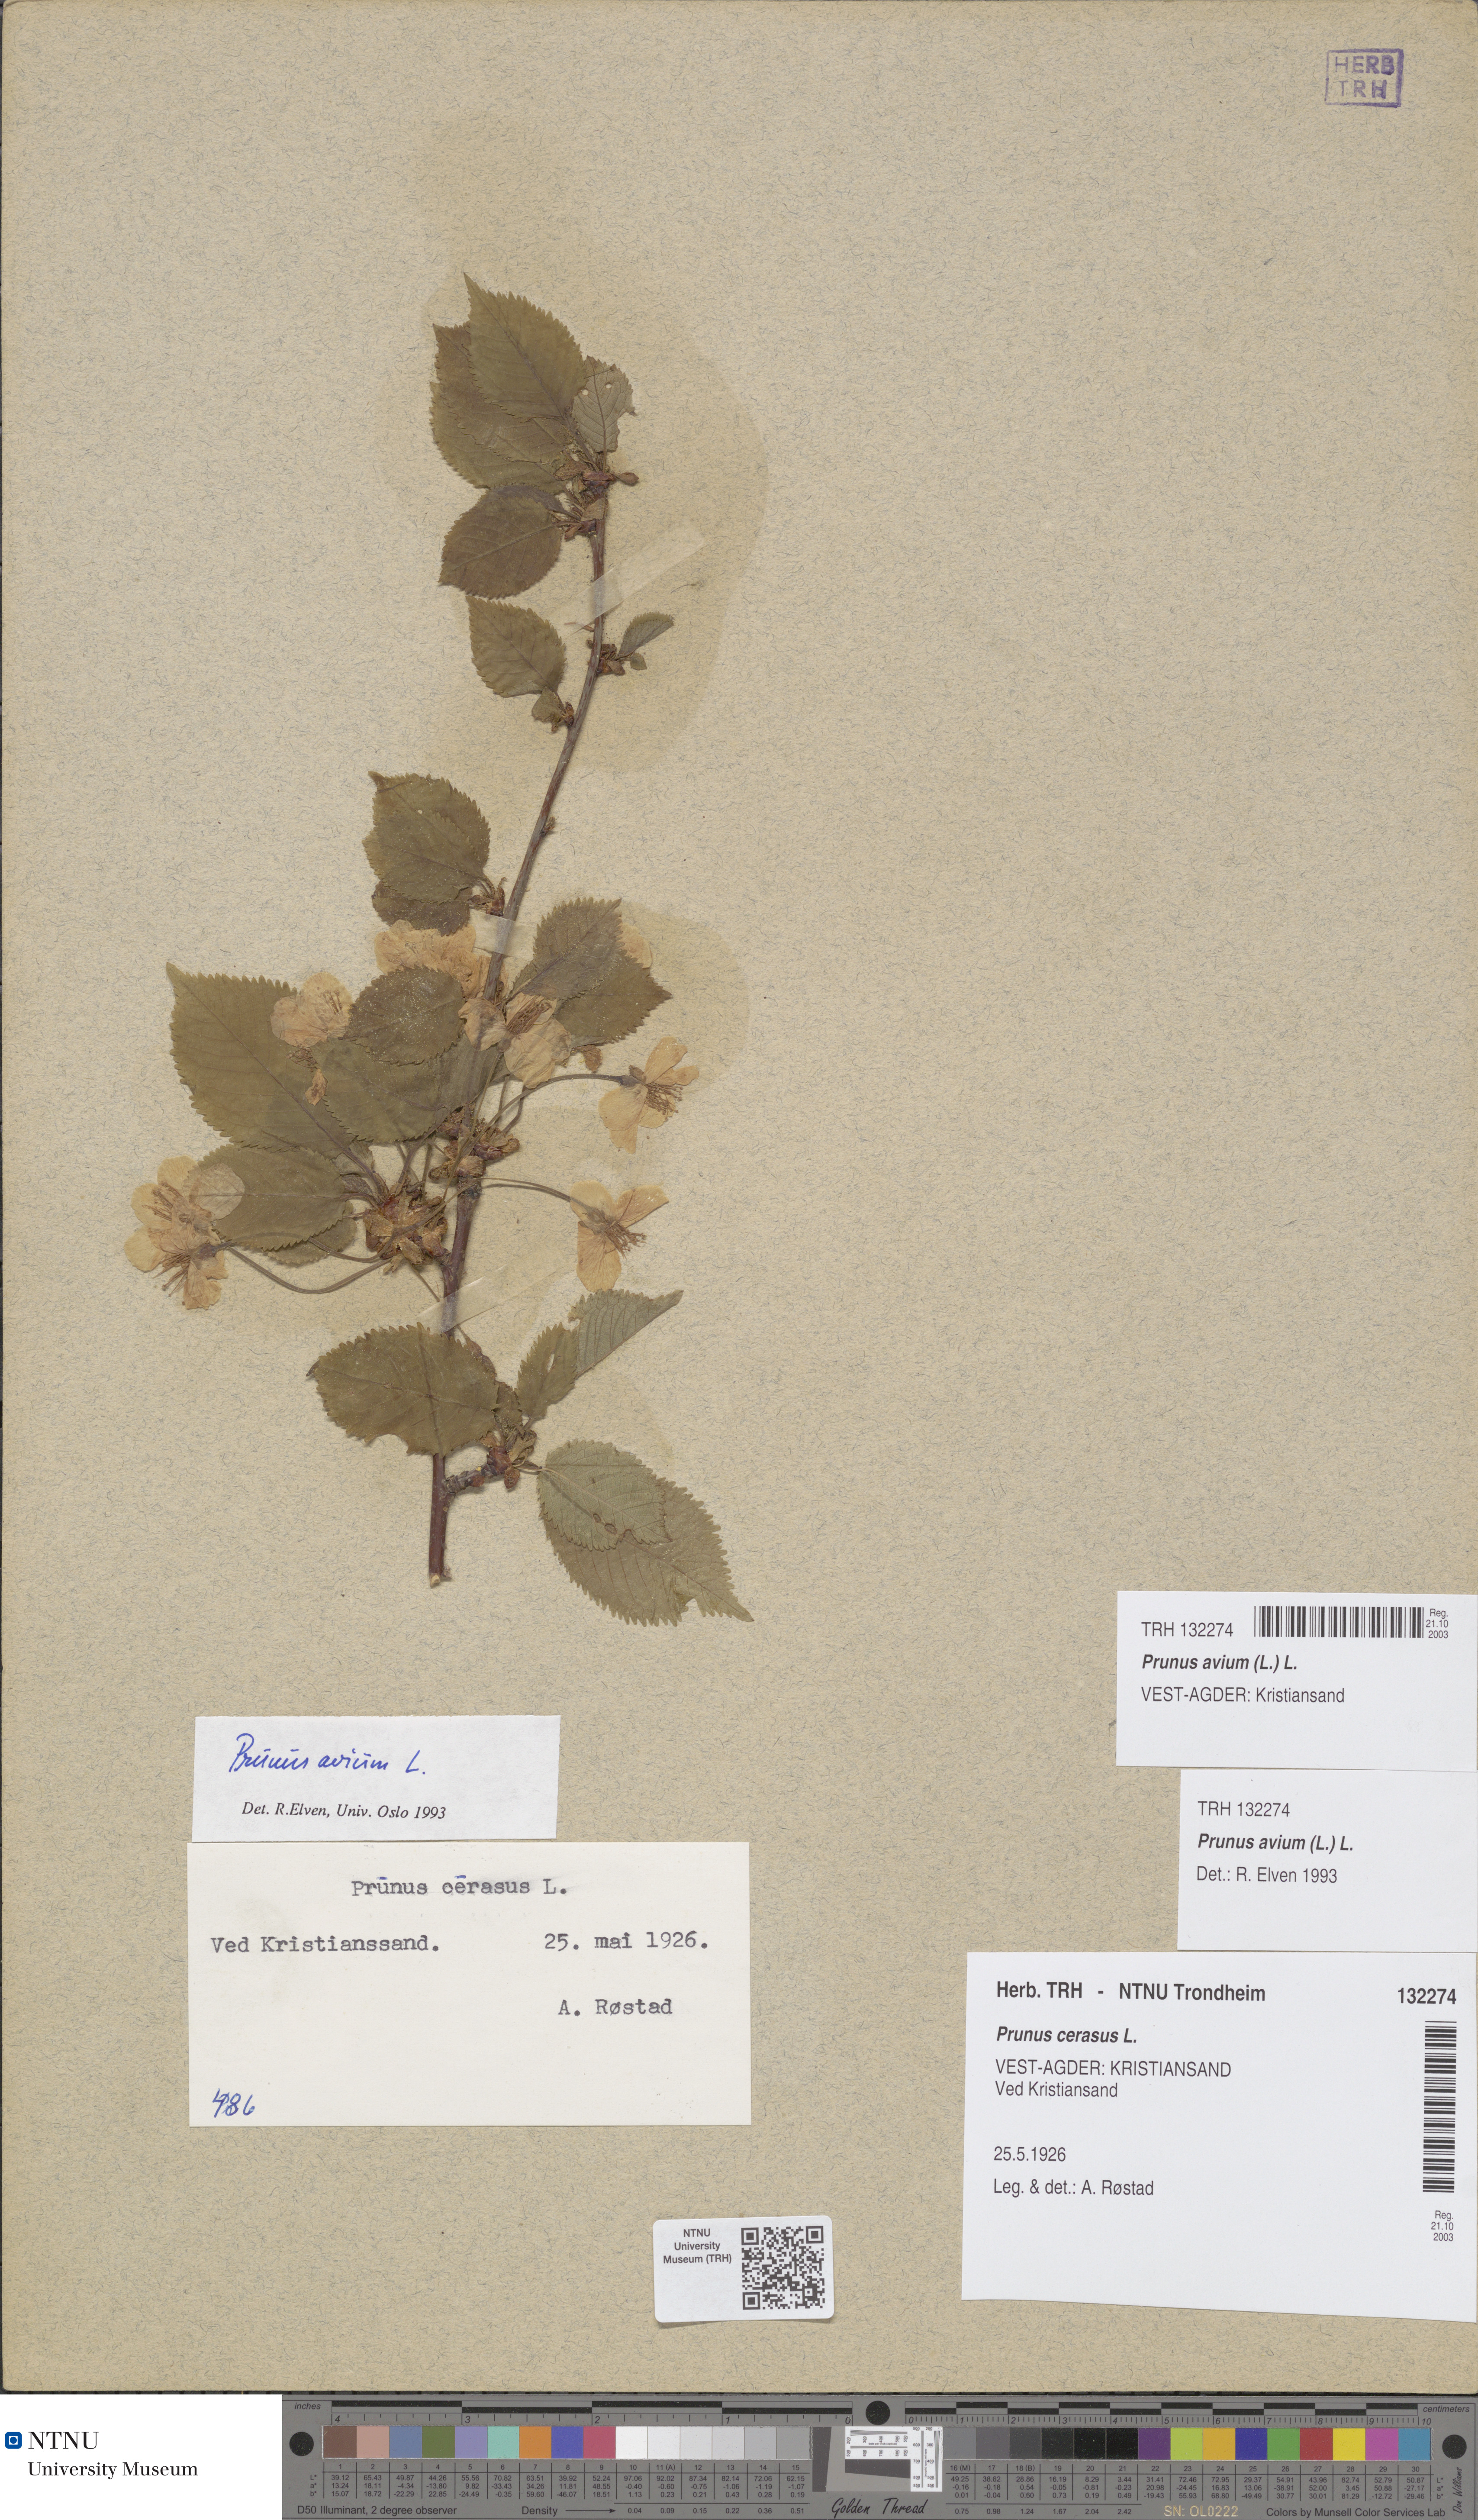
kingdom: Plantae
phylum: Tracheophyta
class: Magnoliopsida
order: Rosales
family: Rosaceae
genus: Prunus
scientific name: Prunus avium
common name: Sweet cherry
